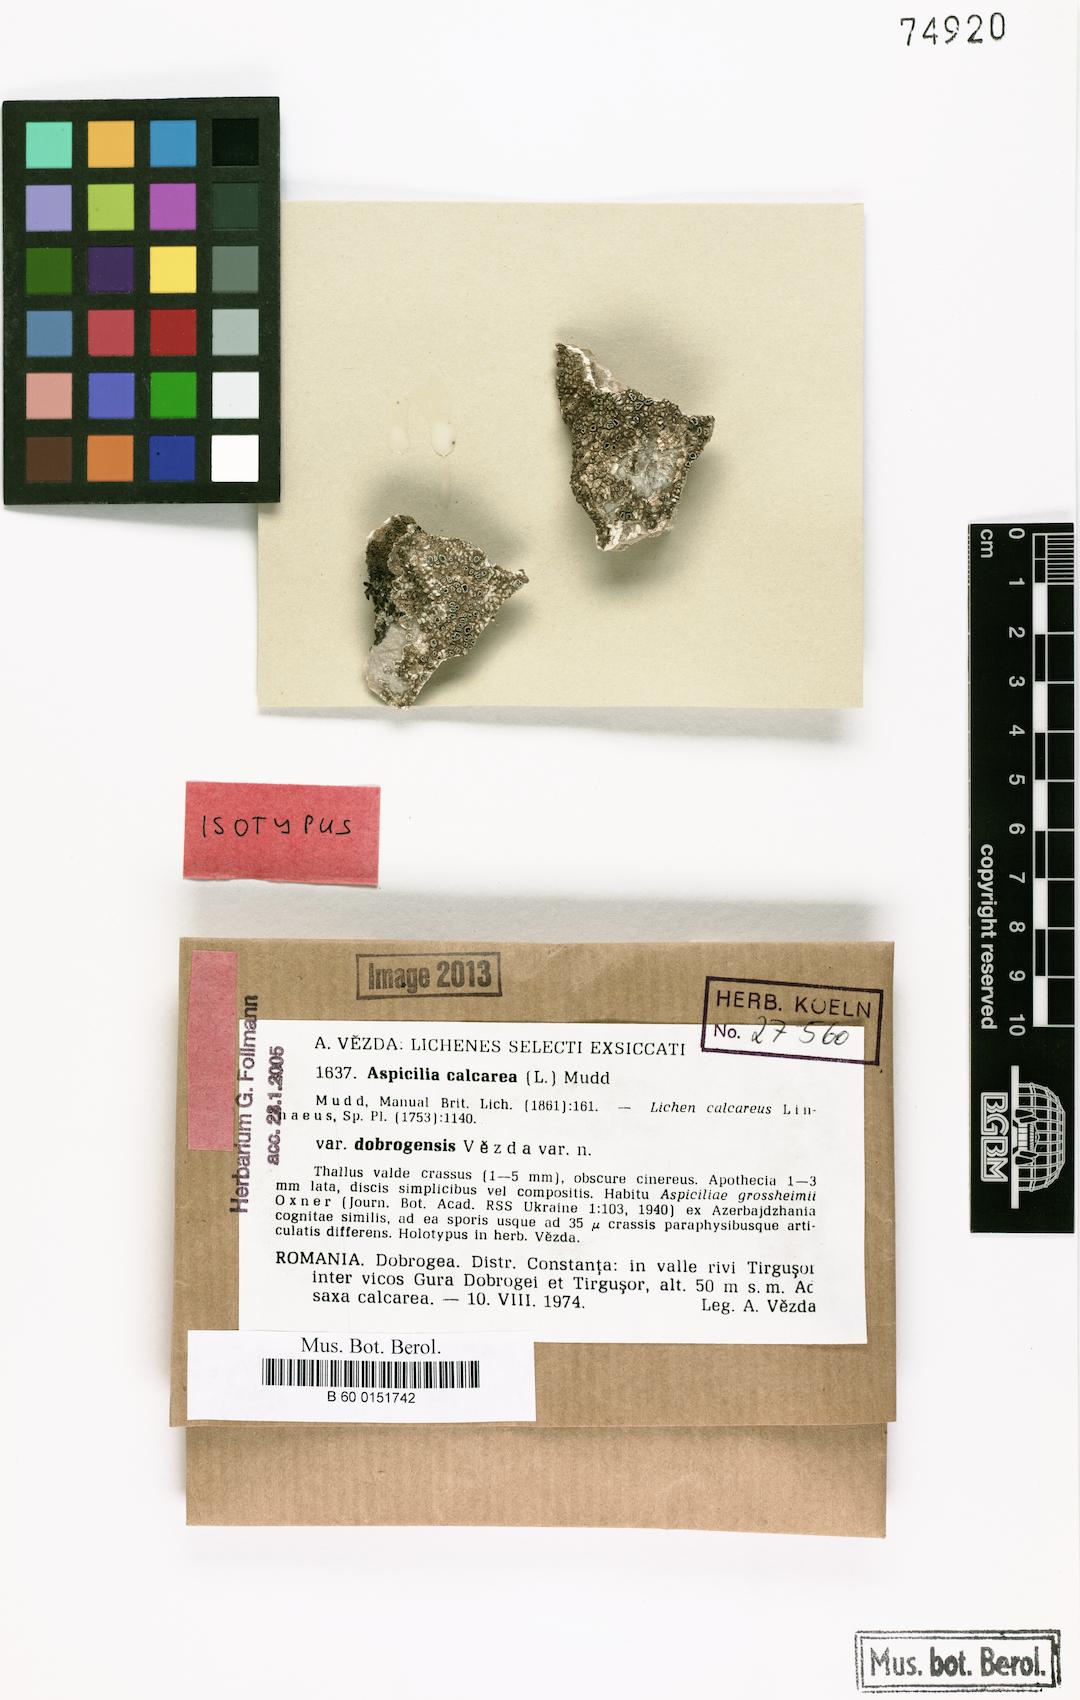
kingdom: Fungi
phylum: Ascomycota
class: Lecanoromycetes
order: Pertusariales
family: Megasporaceae
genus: Circinaria
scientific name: Circinaria calcarea
